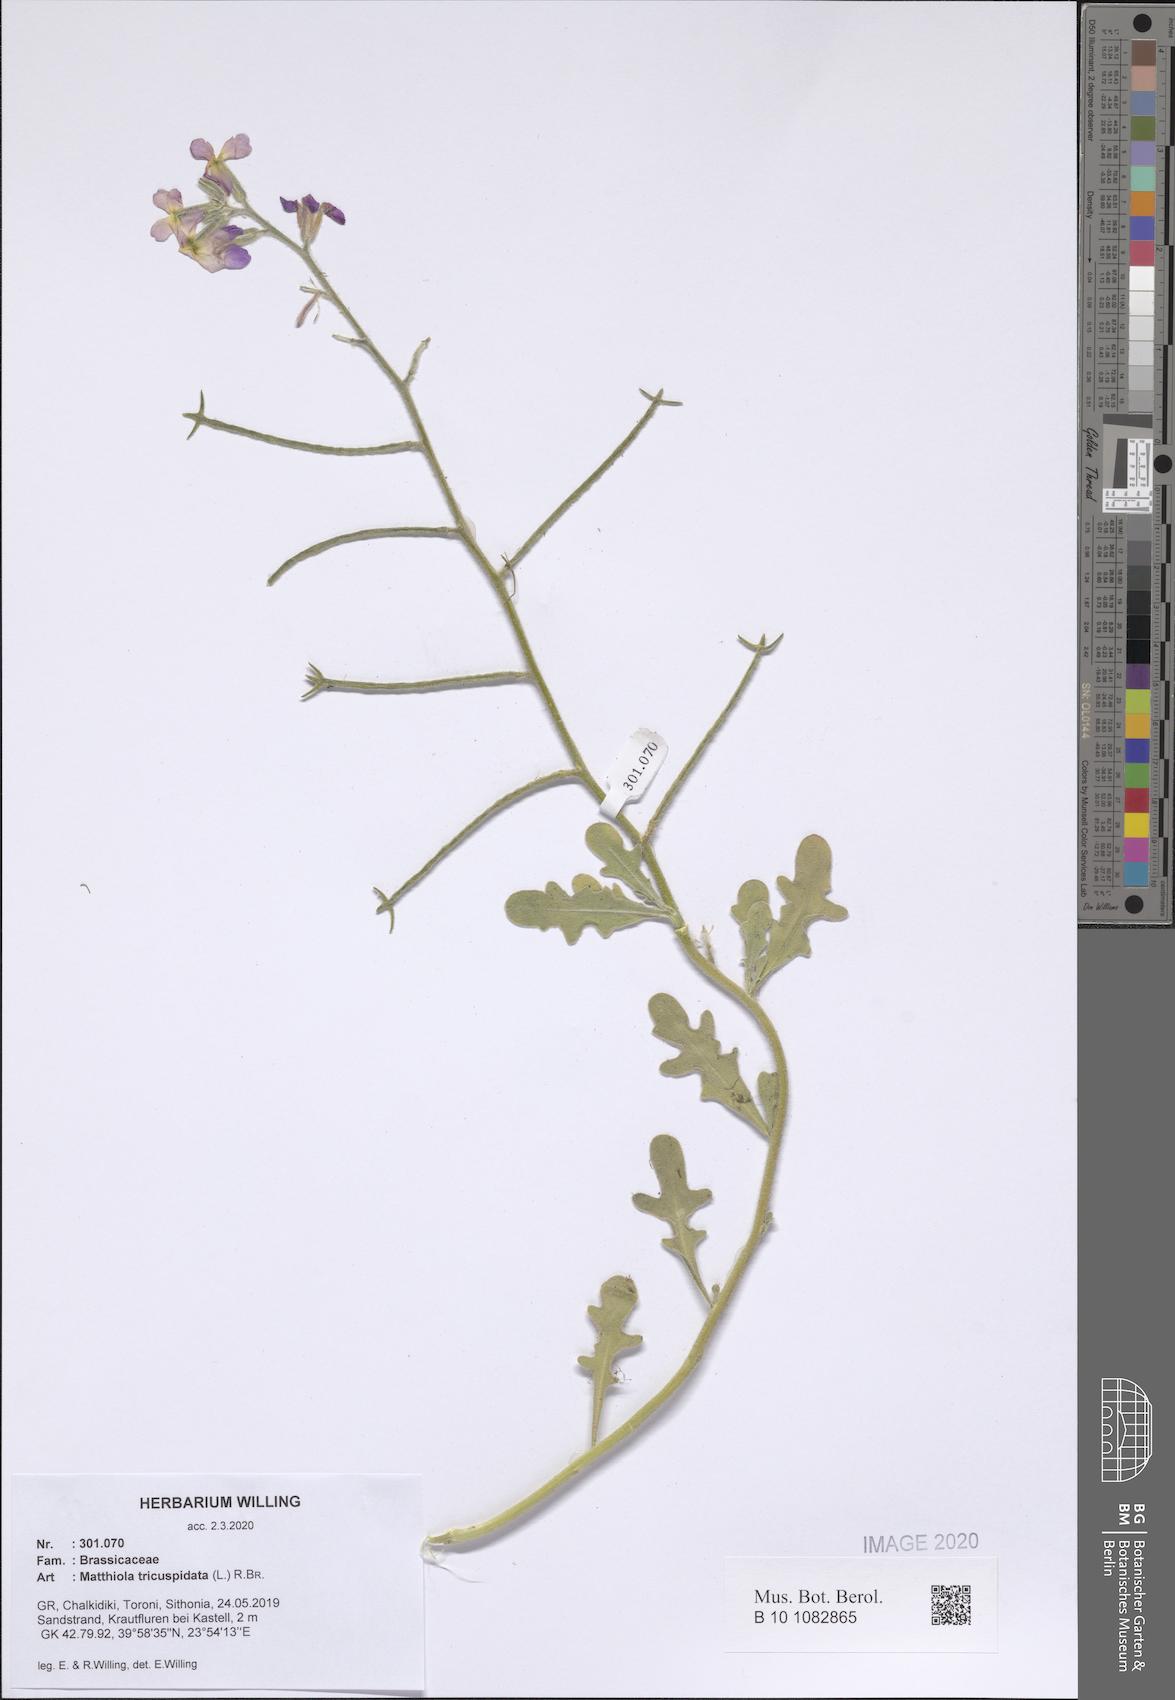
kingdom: Plantae
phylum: Tracheophyta
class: Magnoliopsida
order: Brassicales
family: Brassicaceae
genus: Matthiola
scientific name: Matthiola tricuspidata
